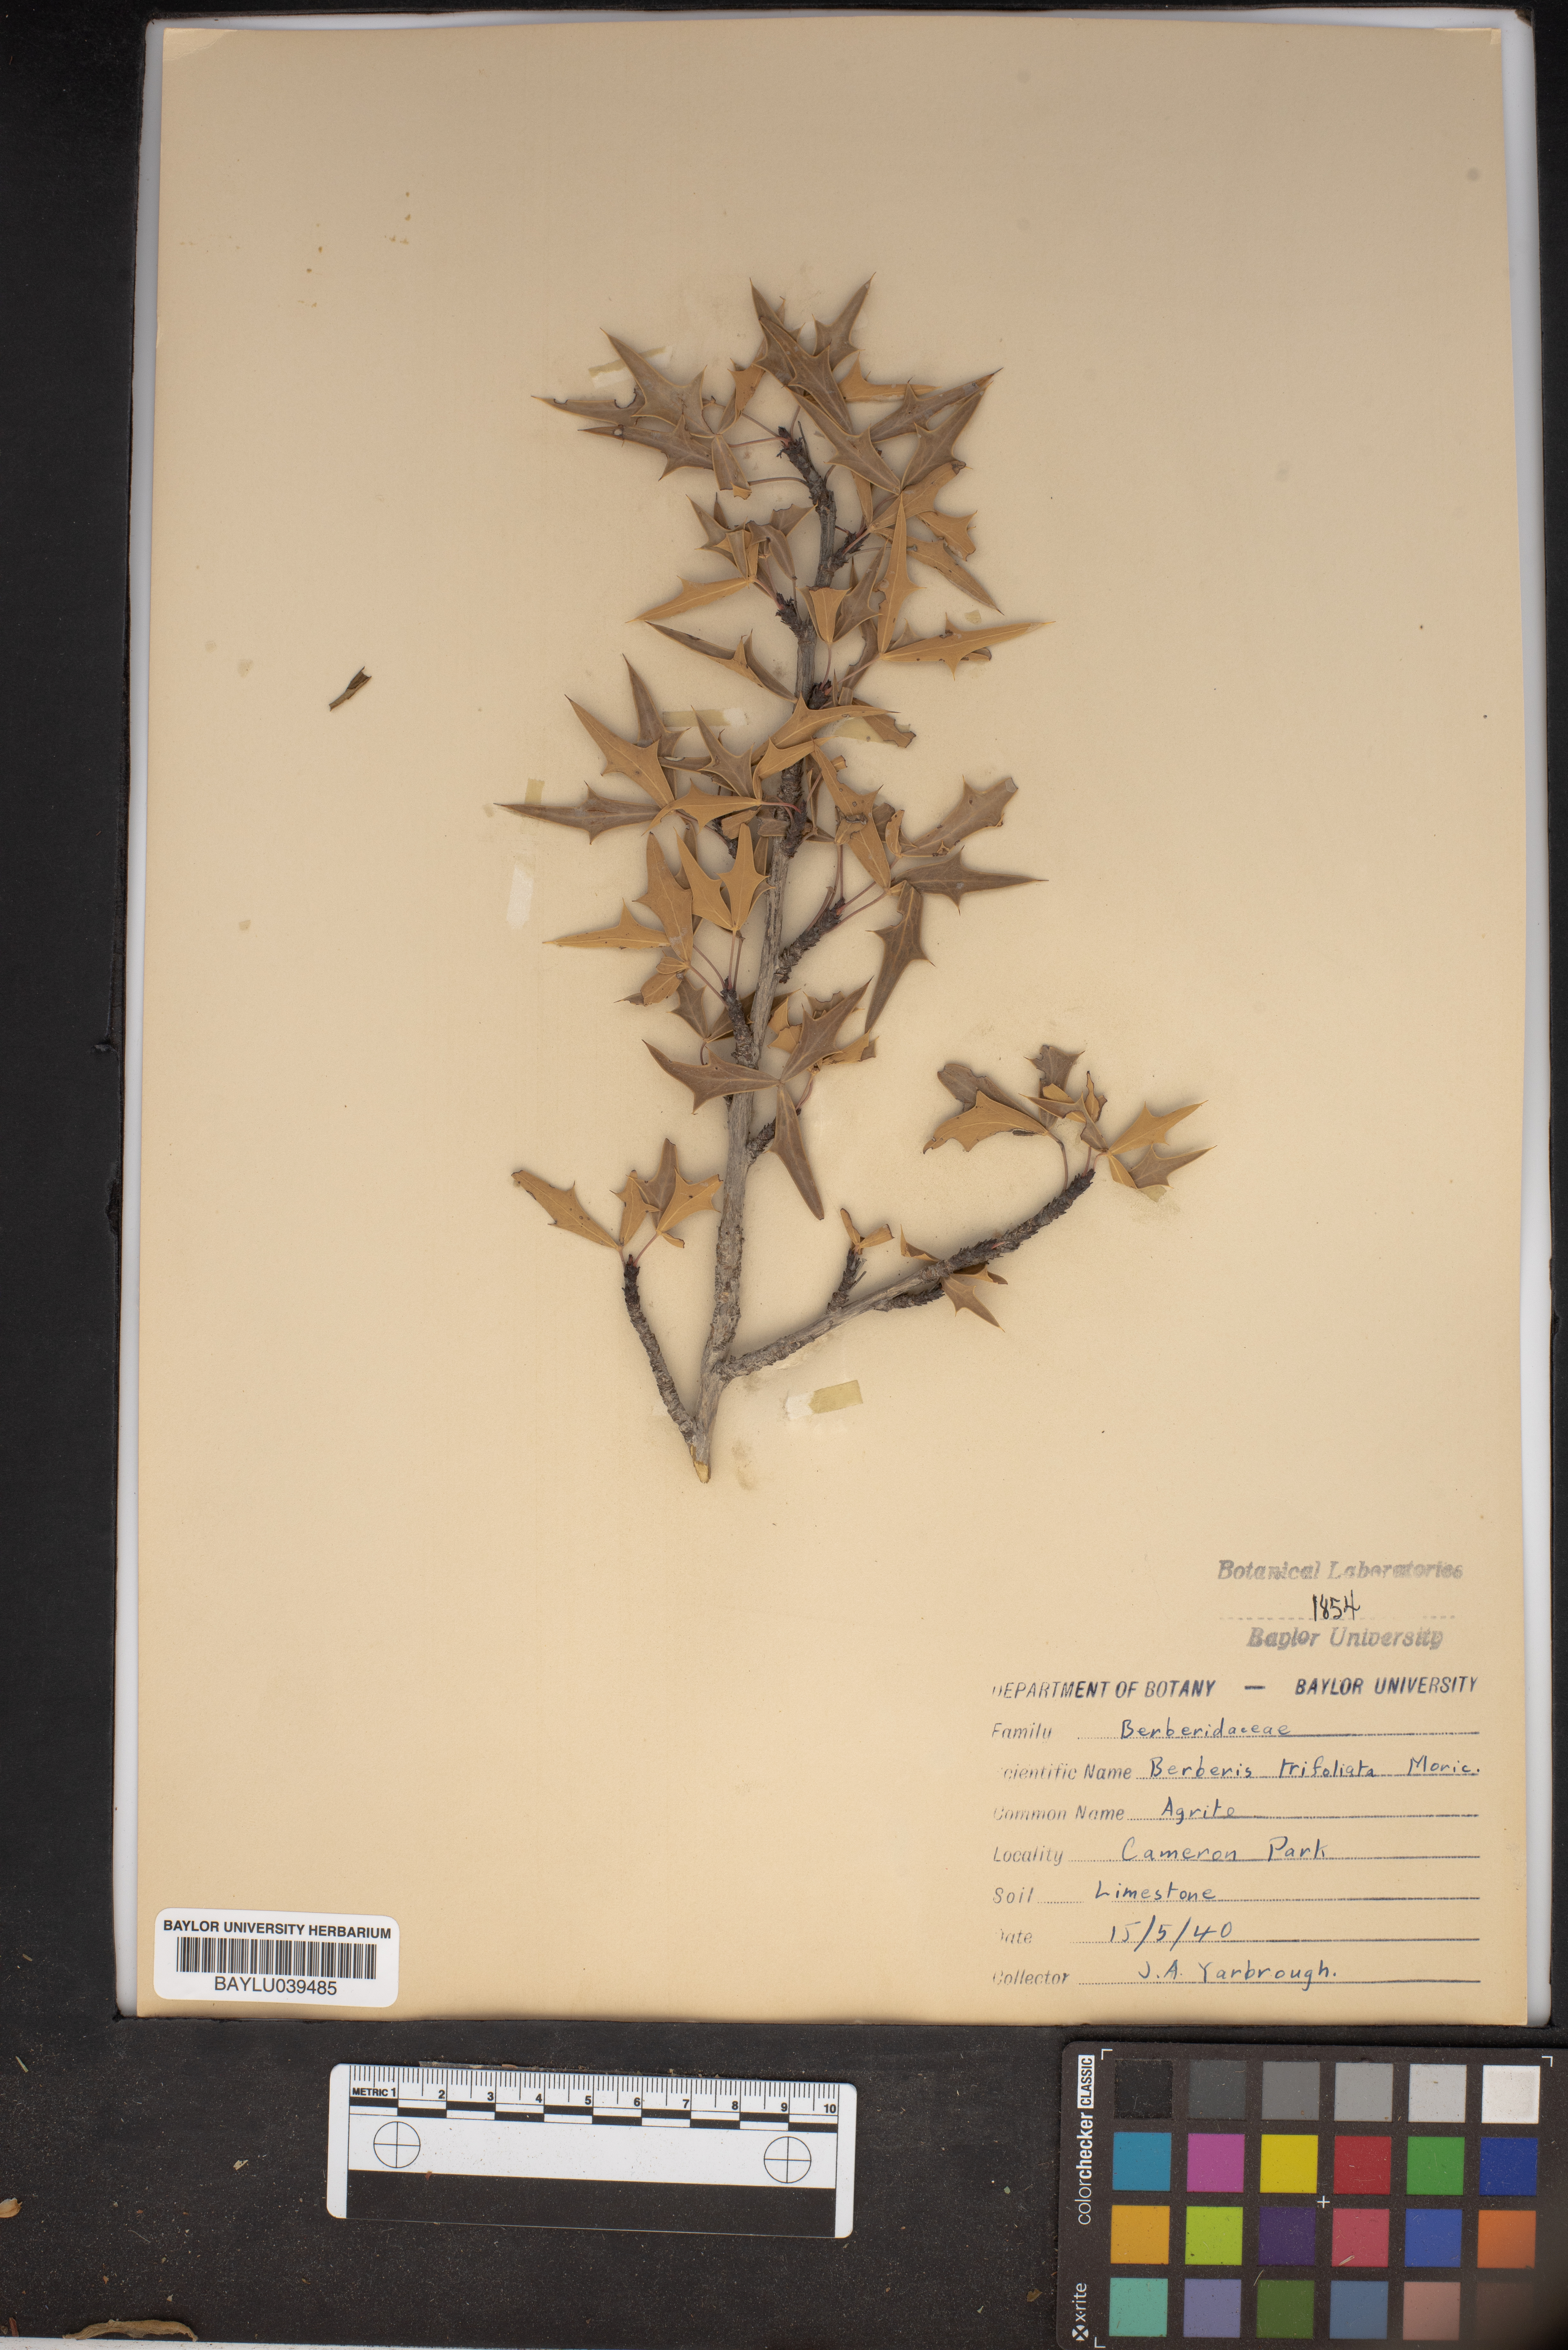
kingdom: Plantae
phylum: Tracheophyta
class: Magnoliopsida
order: Ranunculales
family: Berberidaceae
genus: Alloberberis
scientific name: Alloberberis fremontii
